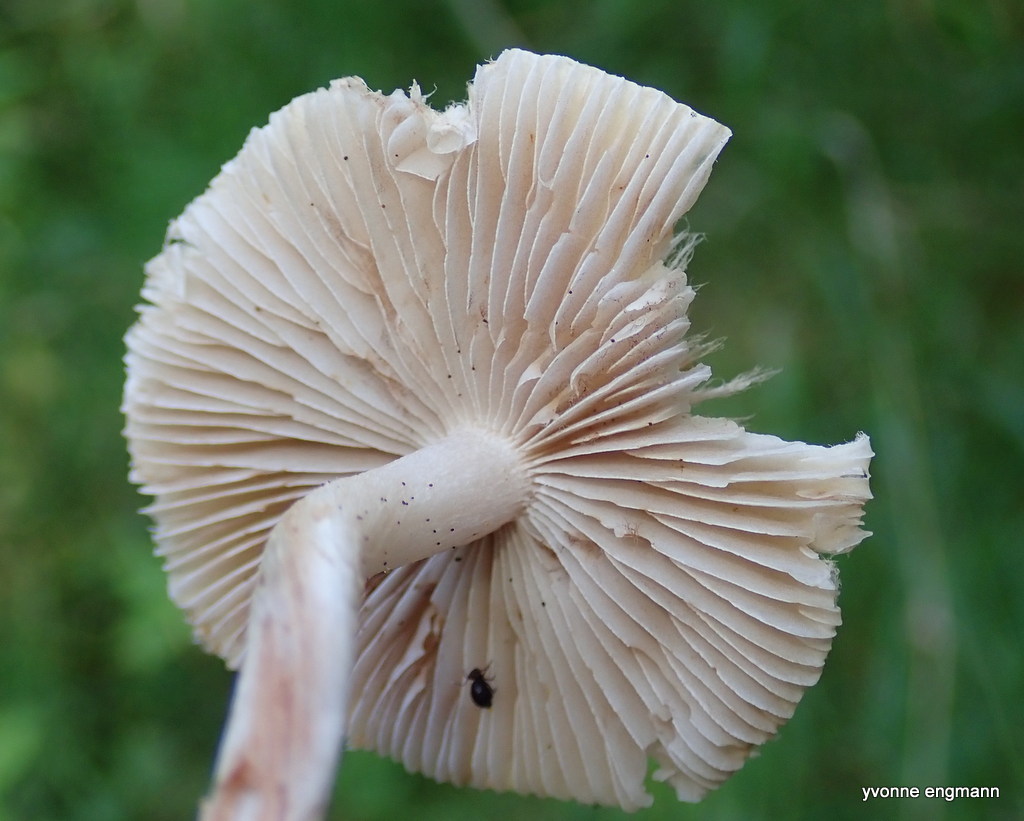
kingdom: Fungi
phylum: Basidiomycota
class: Agaricomycetes
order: Agaricales
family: Inocybaceae
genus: Inocybe
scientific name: Inocybe
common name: trævlhat
